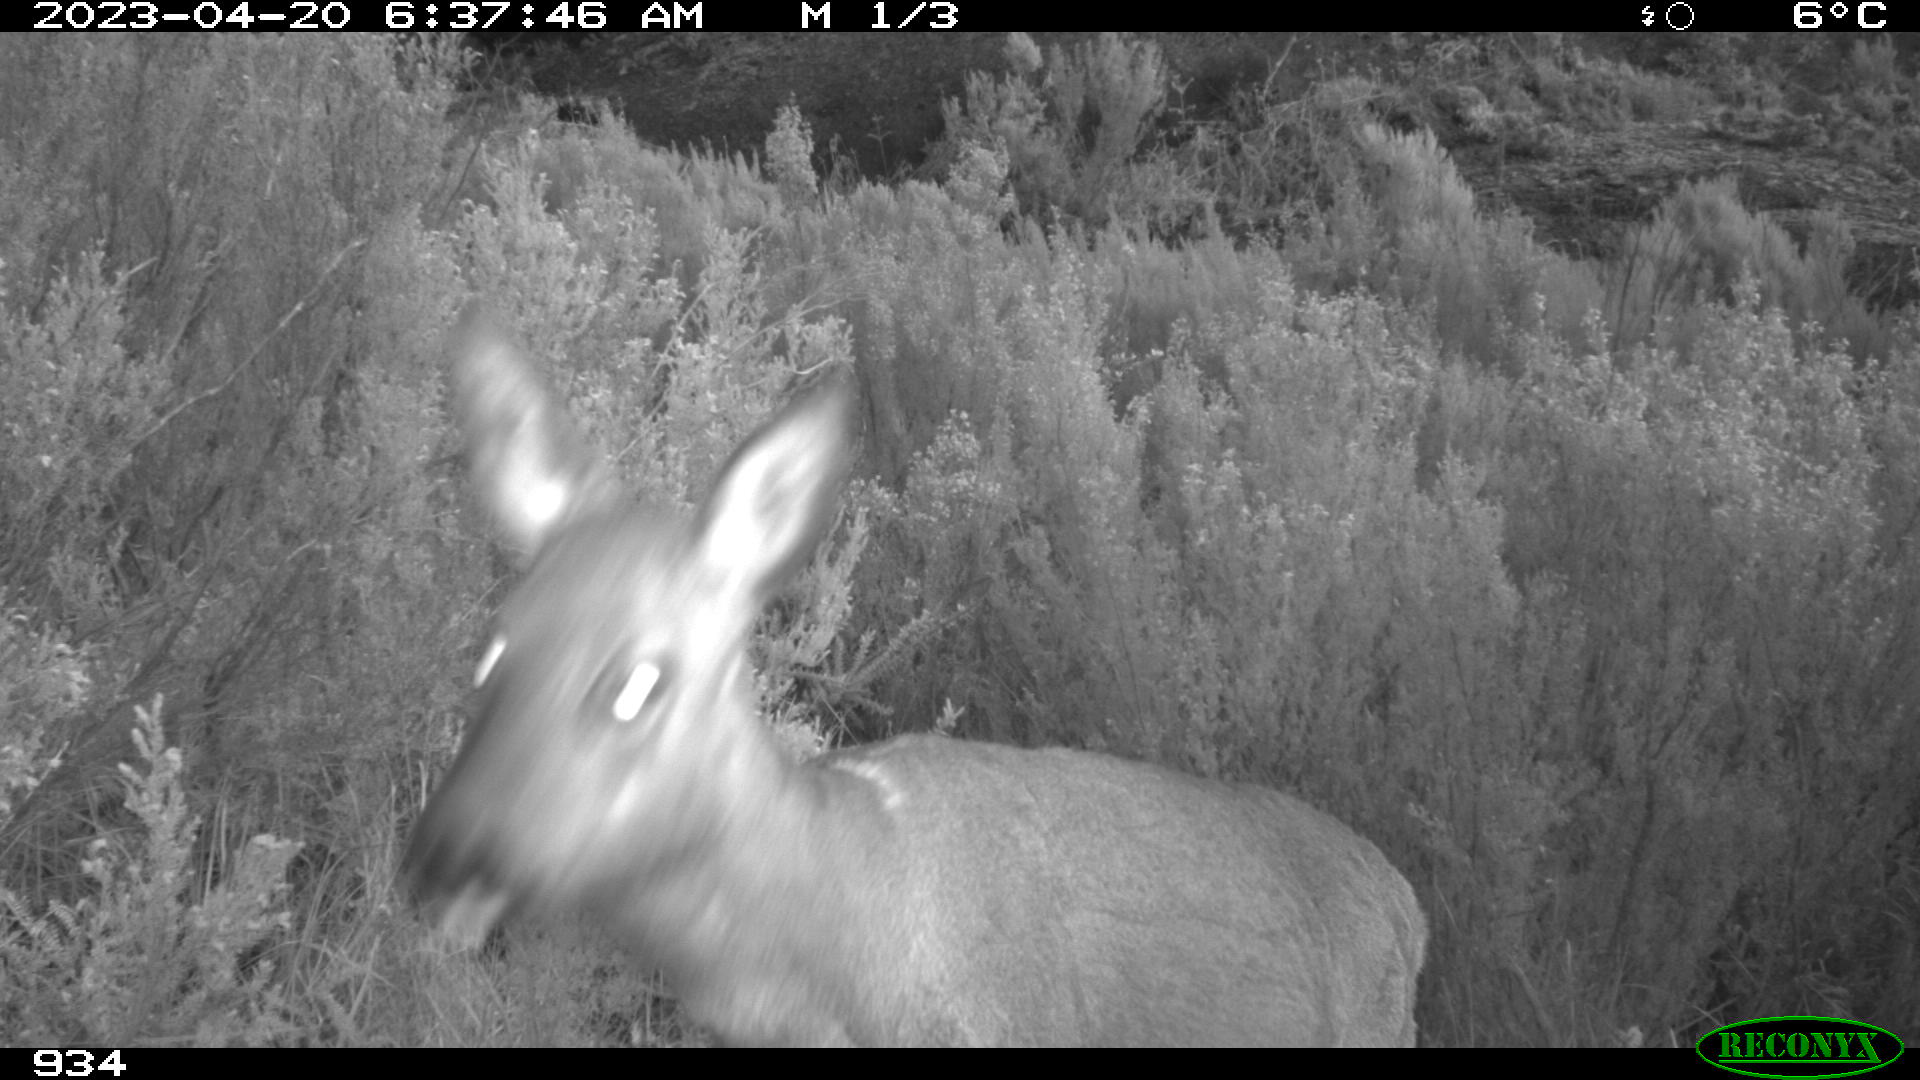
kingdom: Animalia
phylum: Chordata
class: Mammalia
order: Artiodactyla
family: Cervidae
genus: Capreolus
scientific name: Capreolus capreolus
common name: Western roe deer
